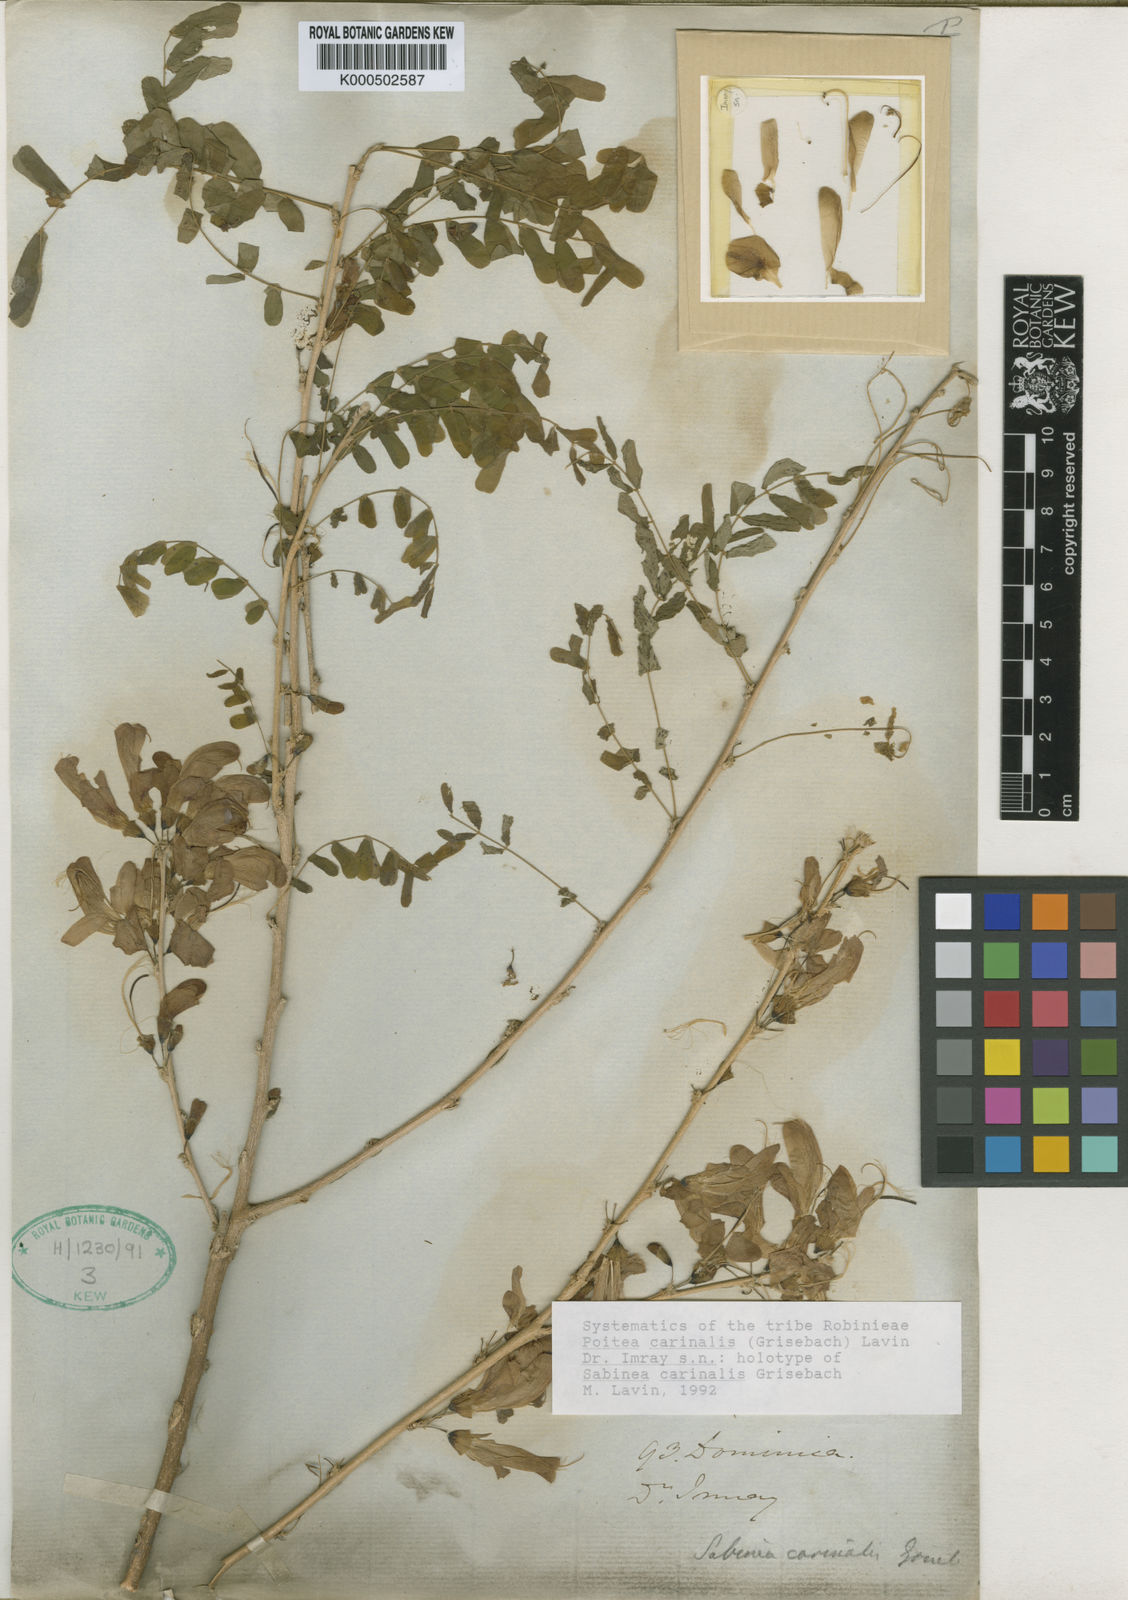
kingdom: Plantae
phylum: Tracheophyta
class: Magnoliopsida
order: Fabales
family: Fabaceae
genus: Poitea
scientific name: Poitea carinalis
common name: Caribwood
